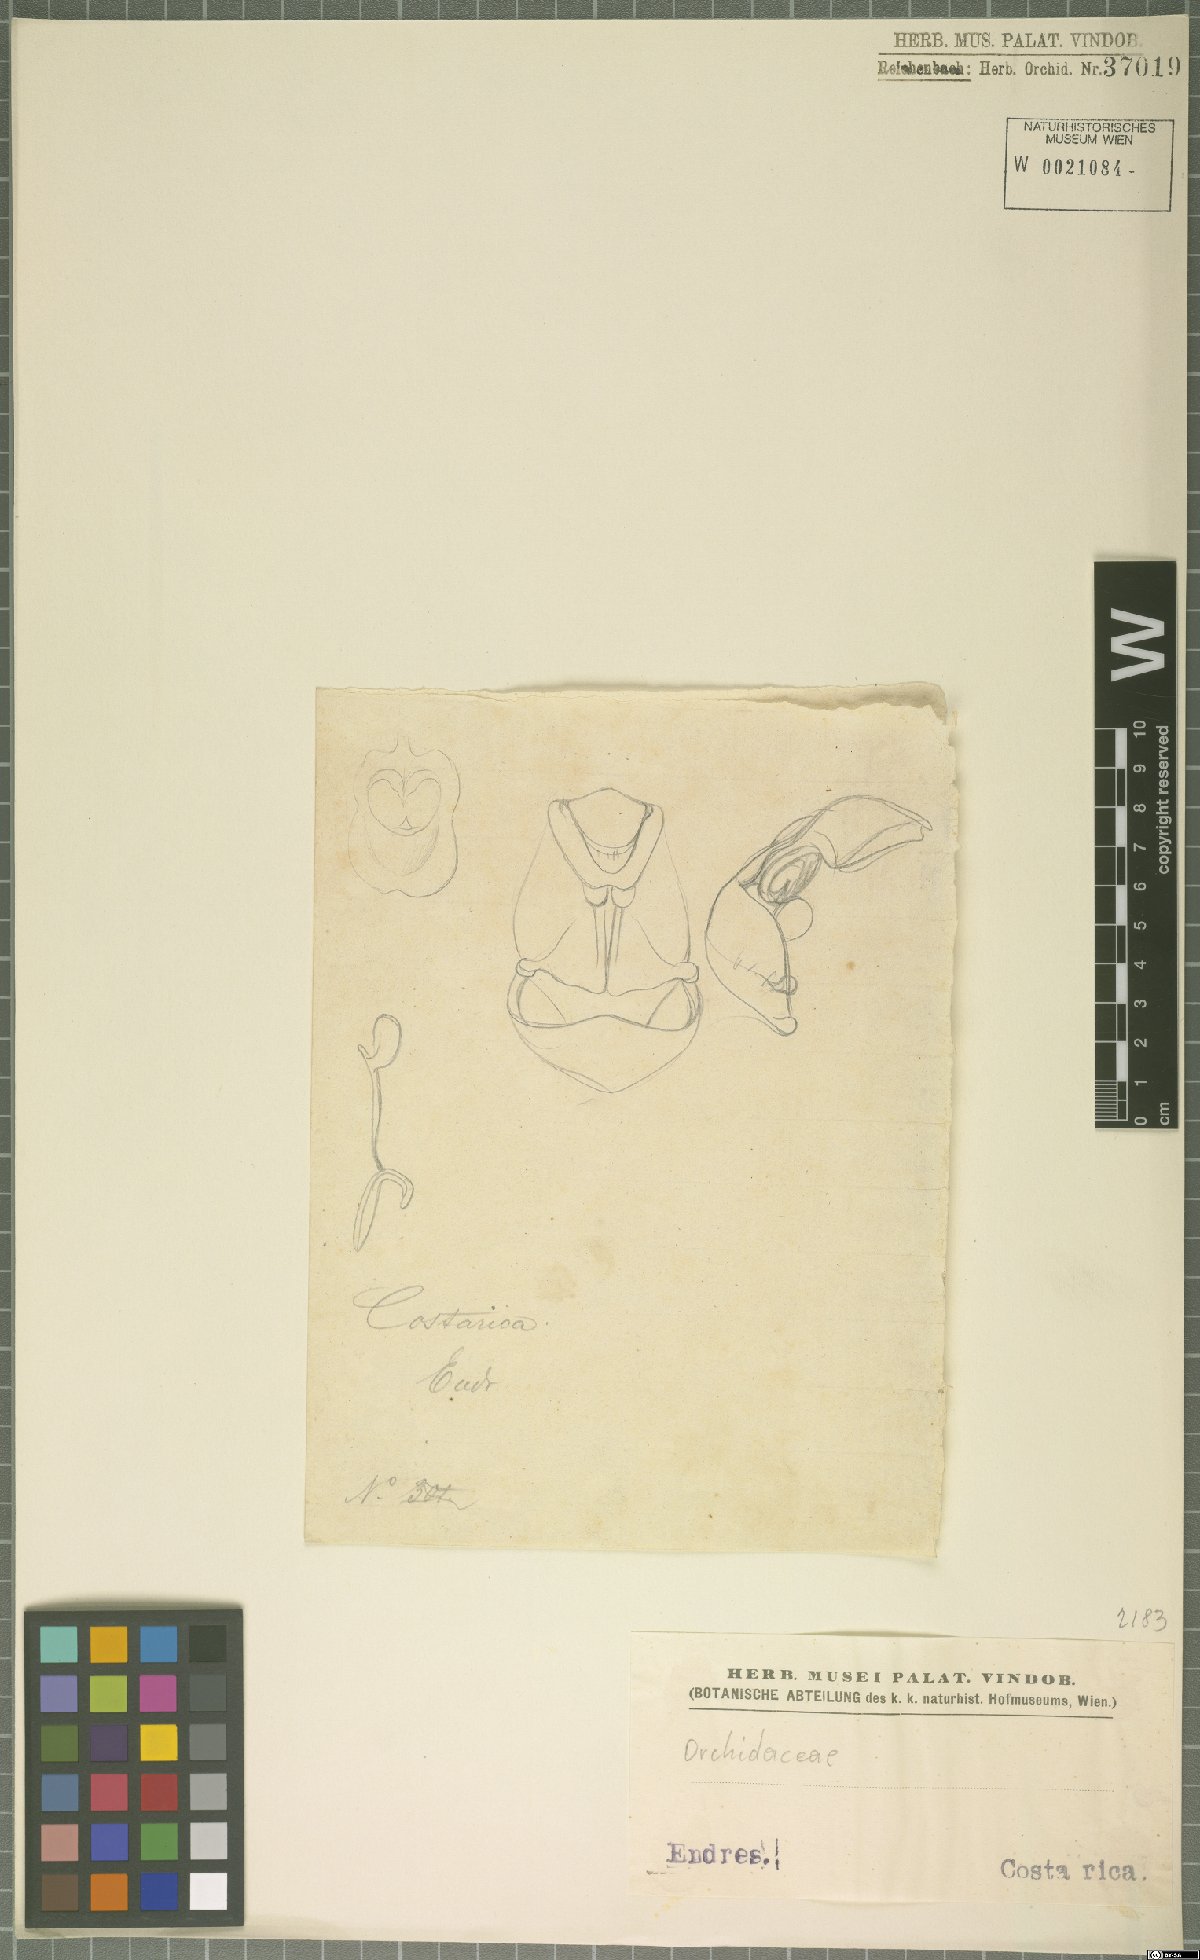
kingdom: Plantae
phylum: Tracheophyta
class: Liliopsida
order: Asparagales
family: Orchidaceae
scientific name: Orchidaceae
